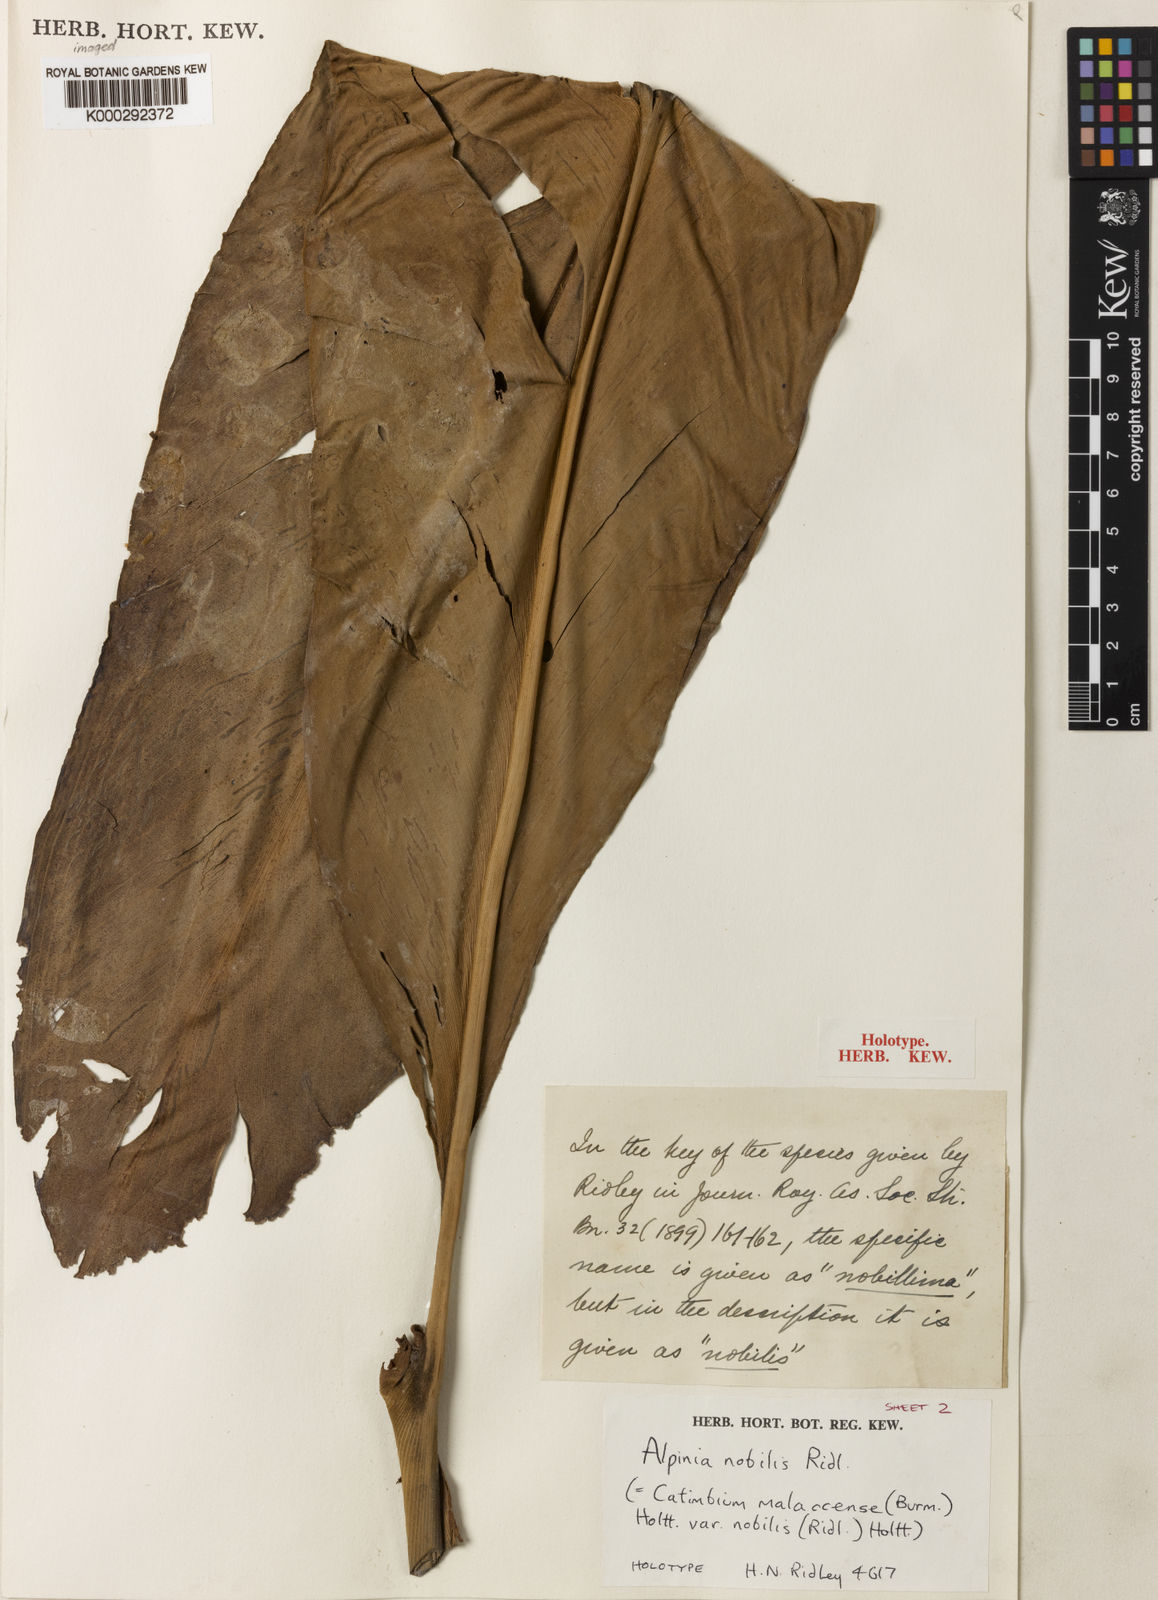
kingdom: Plantae
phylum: Tracheophyta
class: Liliopsida
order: Zingiberales
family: Zingiberaceae
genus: Alpinia
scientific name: Alpinia nobilis
